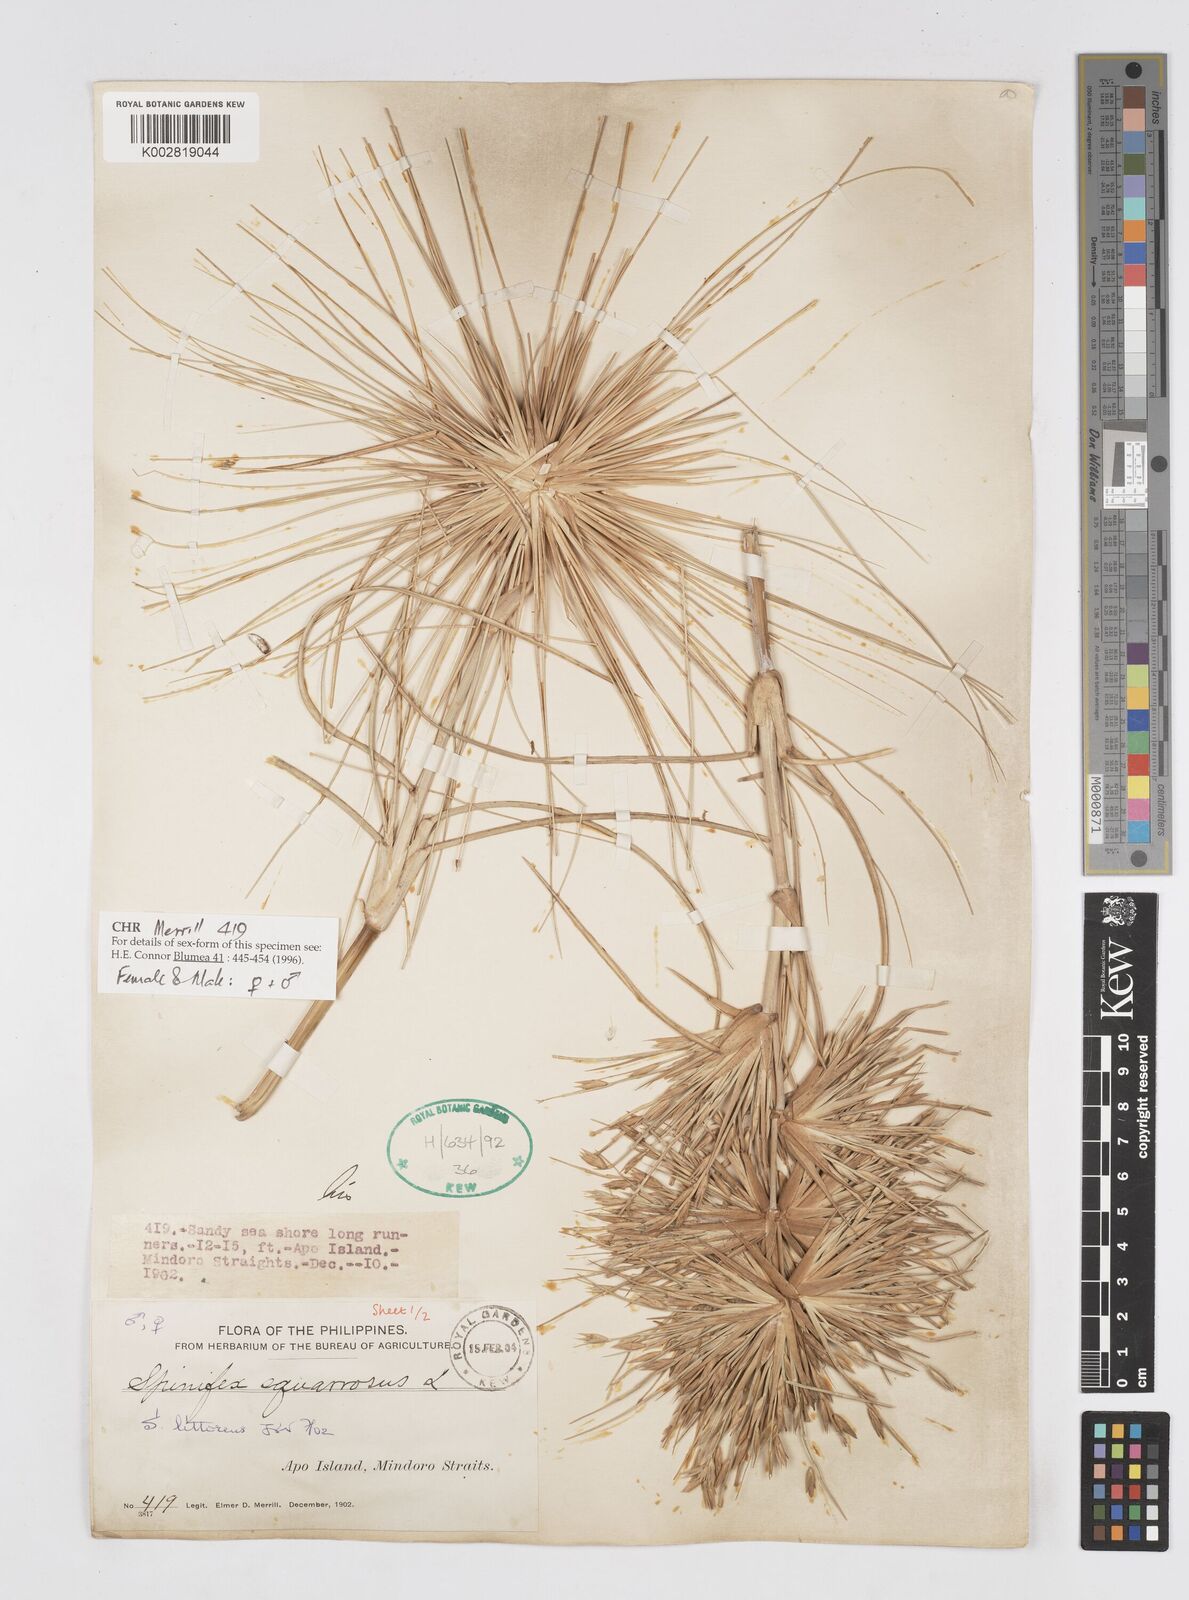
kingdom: Plantae
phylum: Tracheophyta
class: Liliopsida
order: Poales
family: Poaceae
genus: Spinifex
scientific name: Spinifex littoreus
